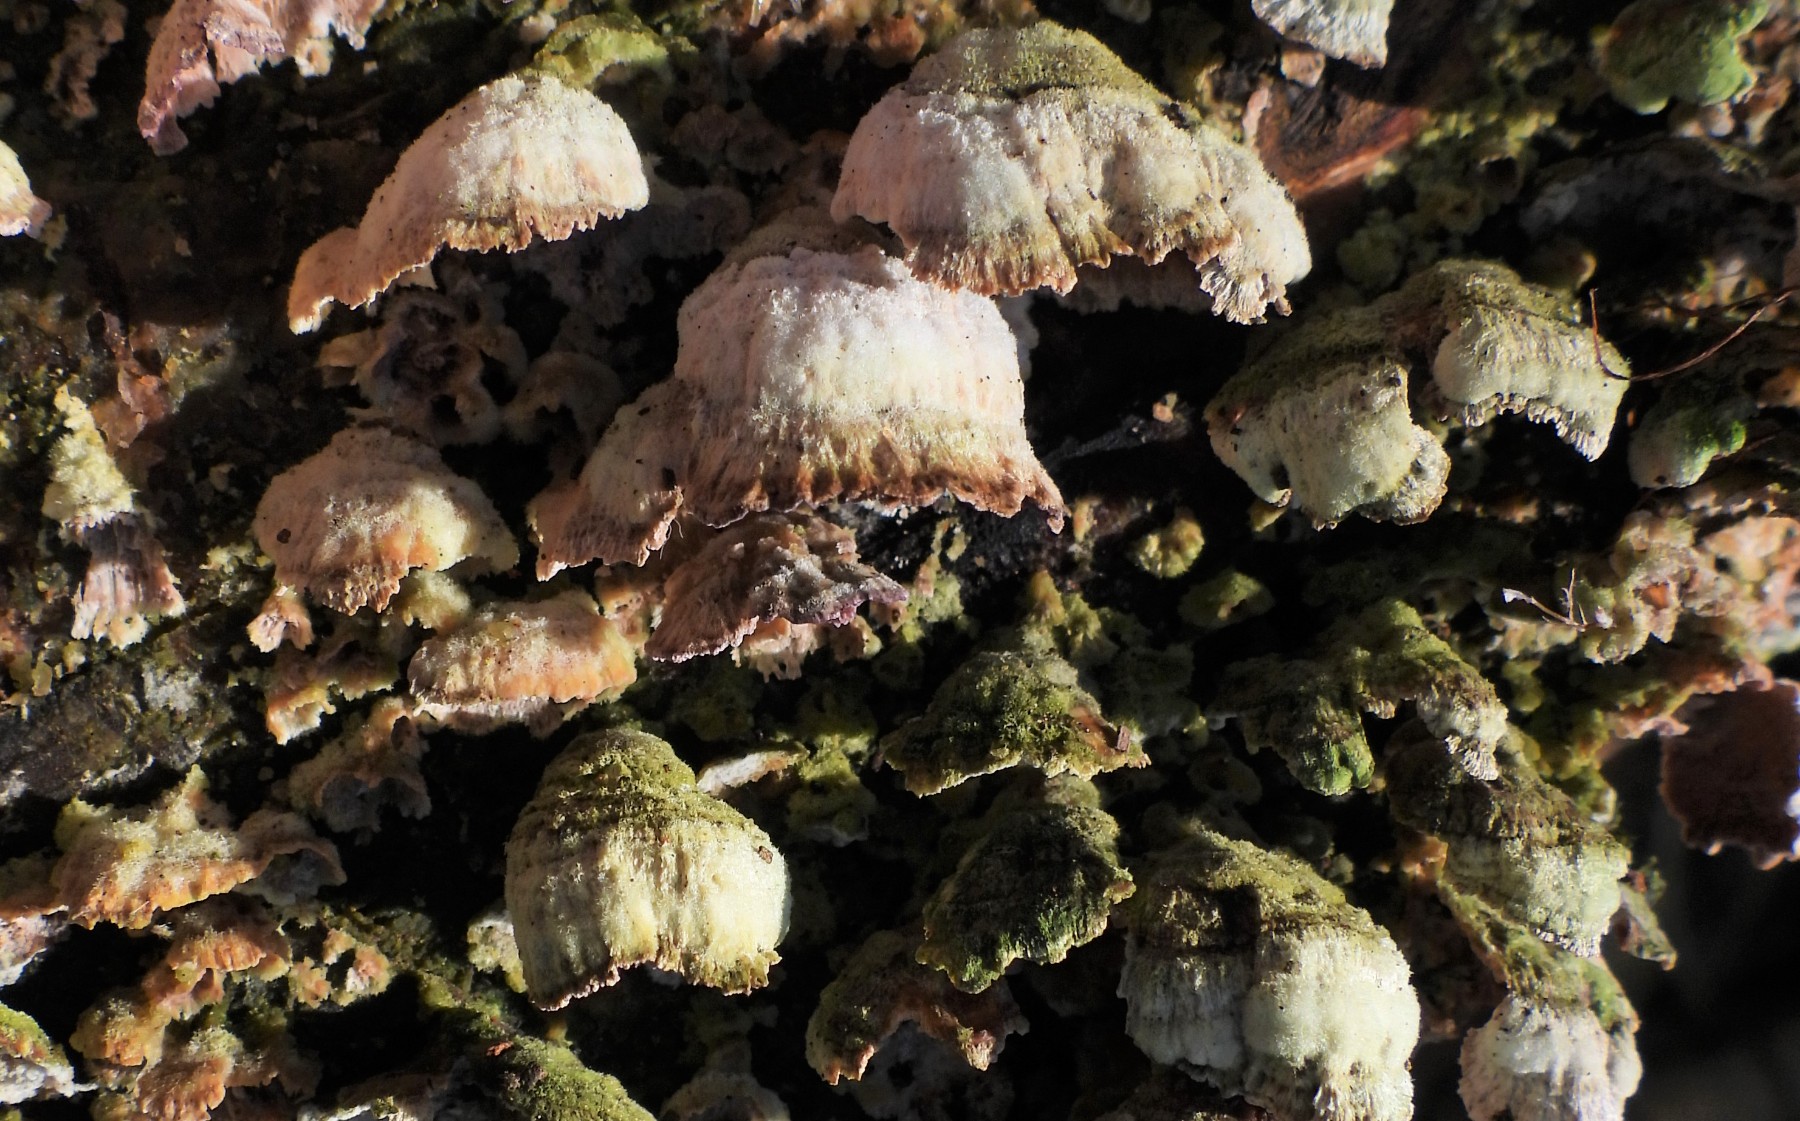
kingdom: Fungi
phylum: Basidiomycota
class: Agaricomycetes
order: Agaricales
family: Cyphellaceae
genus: Chondrostereum
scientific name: Chondrostereum purpureum
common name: purpurlædersvamp
